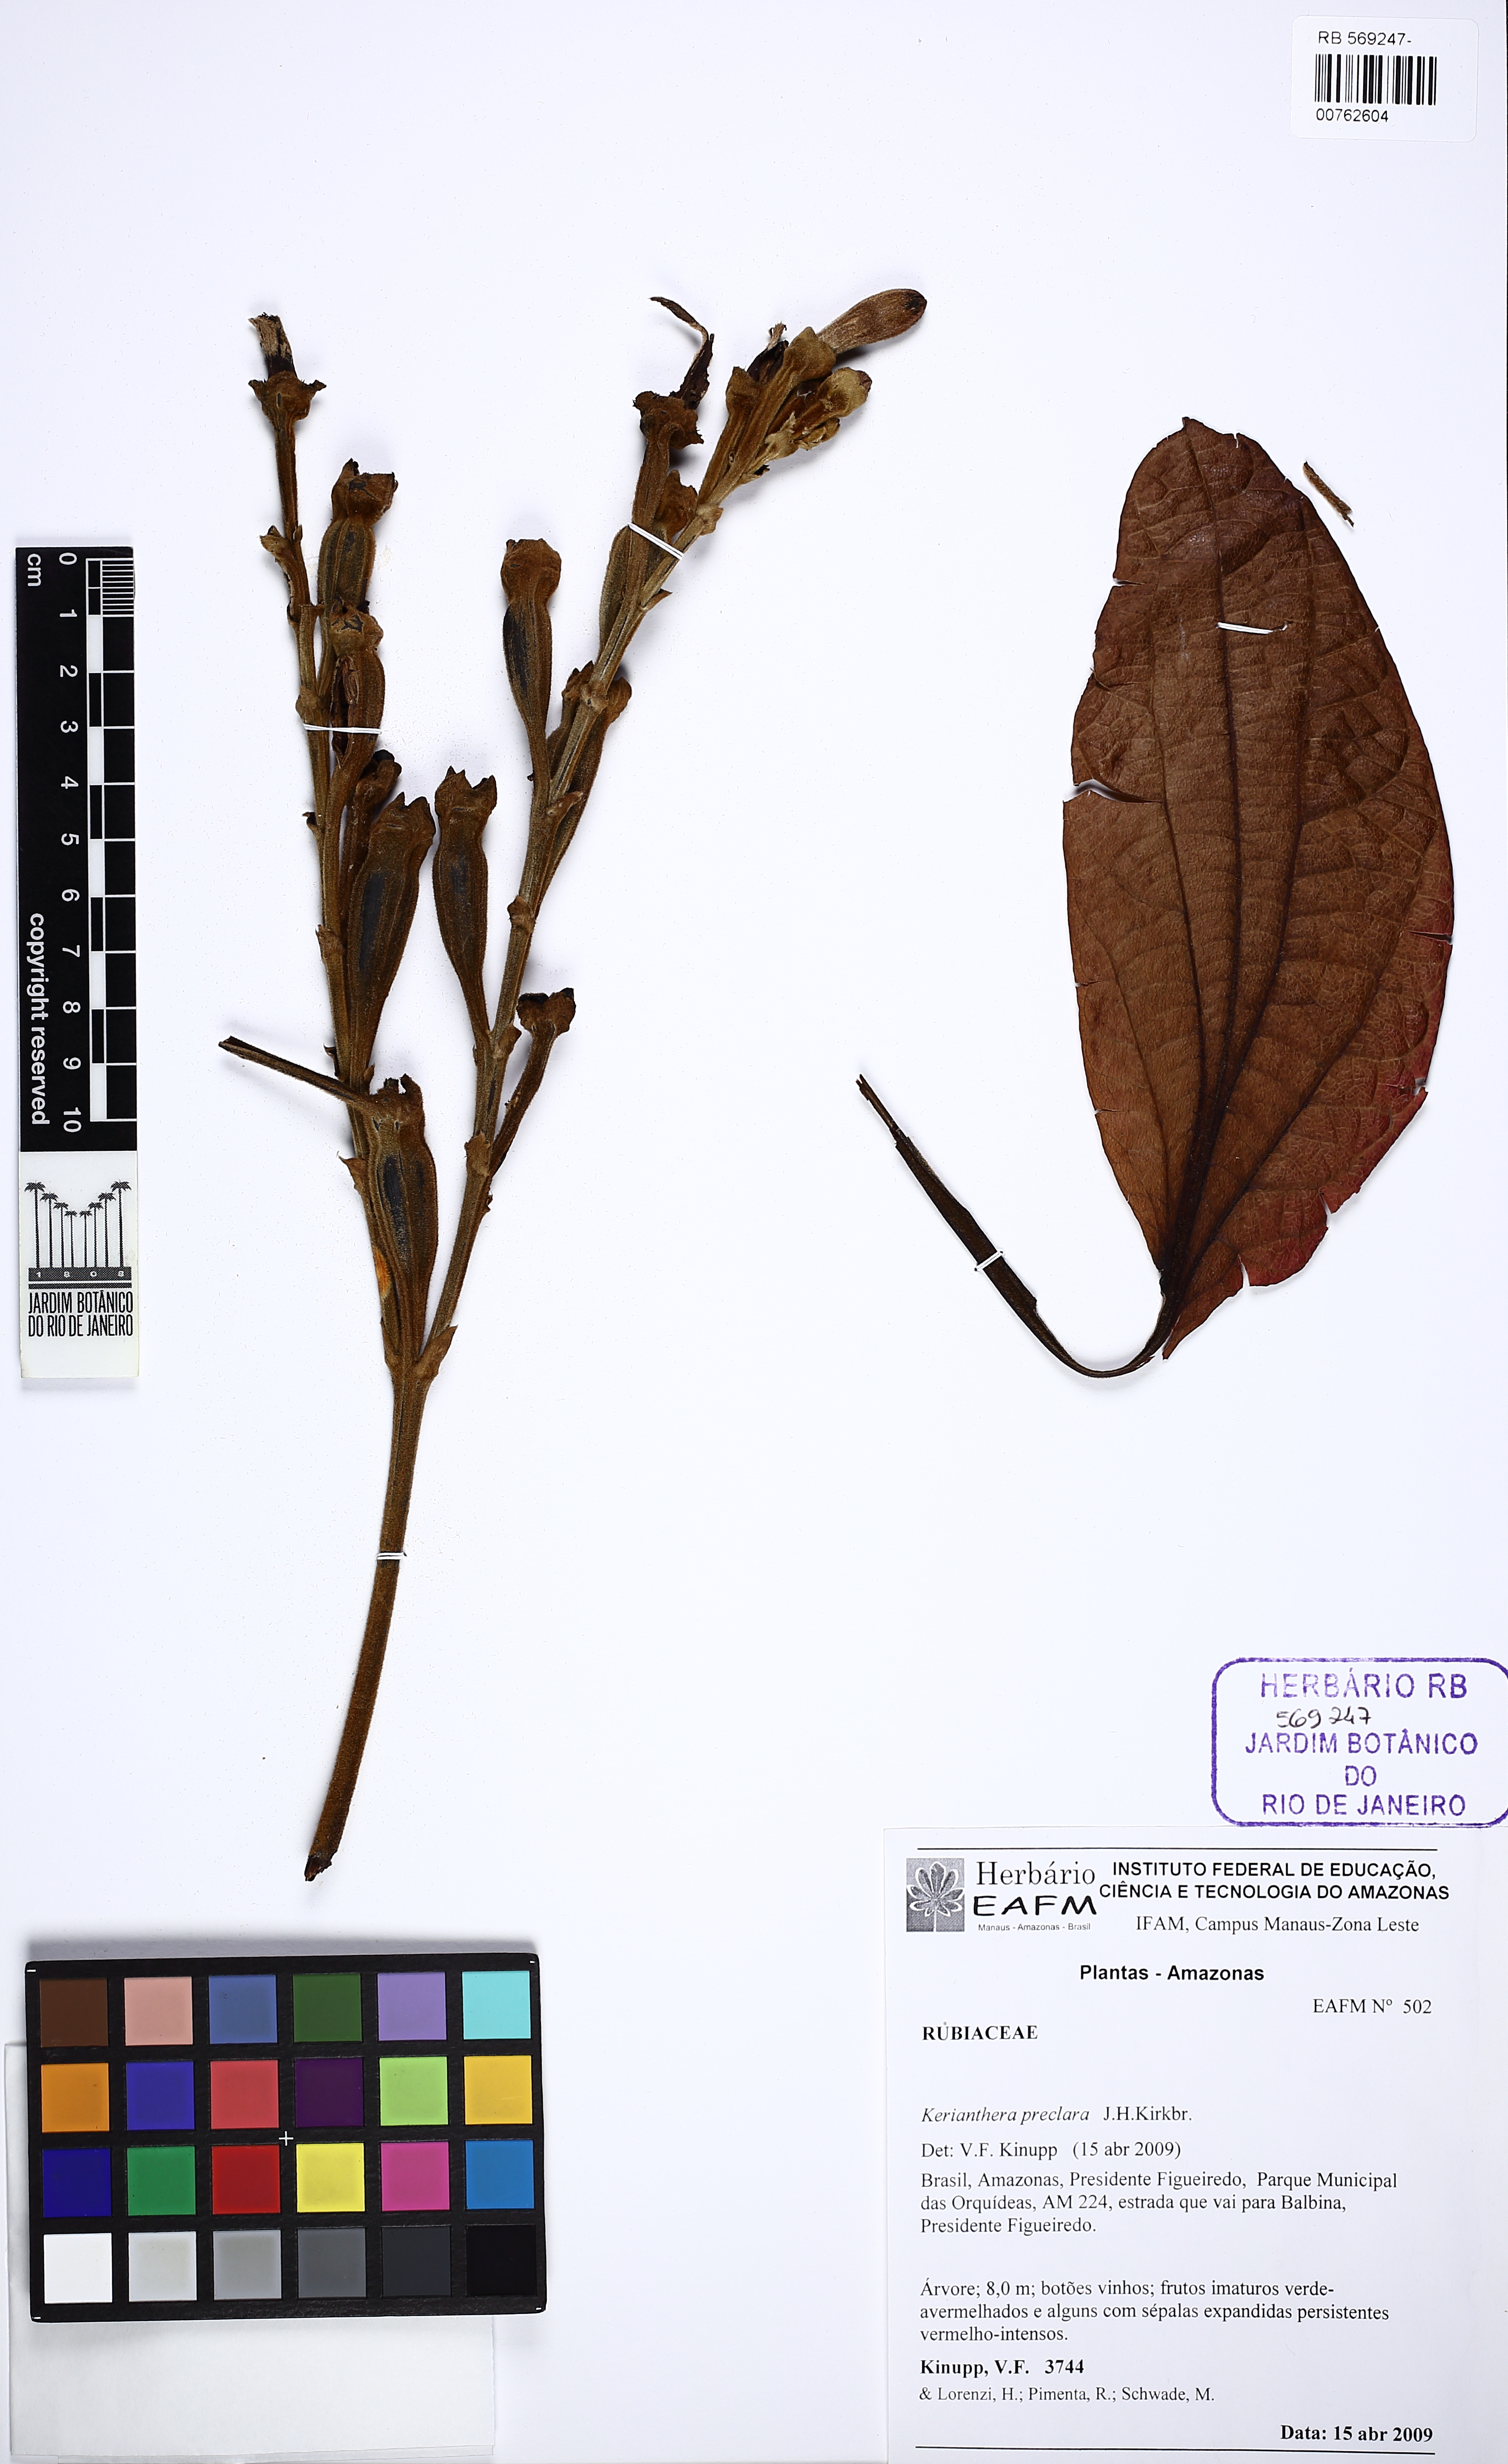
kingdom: Plantae
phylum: Tracheophyta
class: Magnoliopsida
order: Gentianales
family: Rubiaceae
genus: Kerianthera
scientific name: Kerianthera preclara
